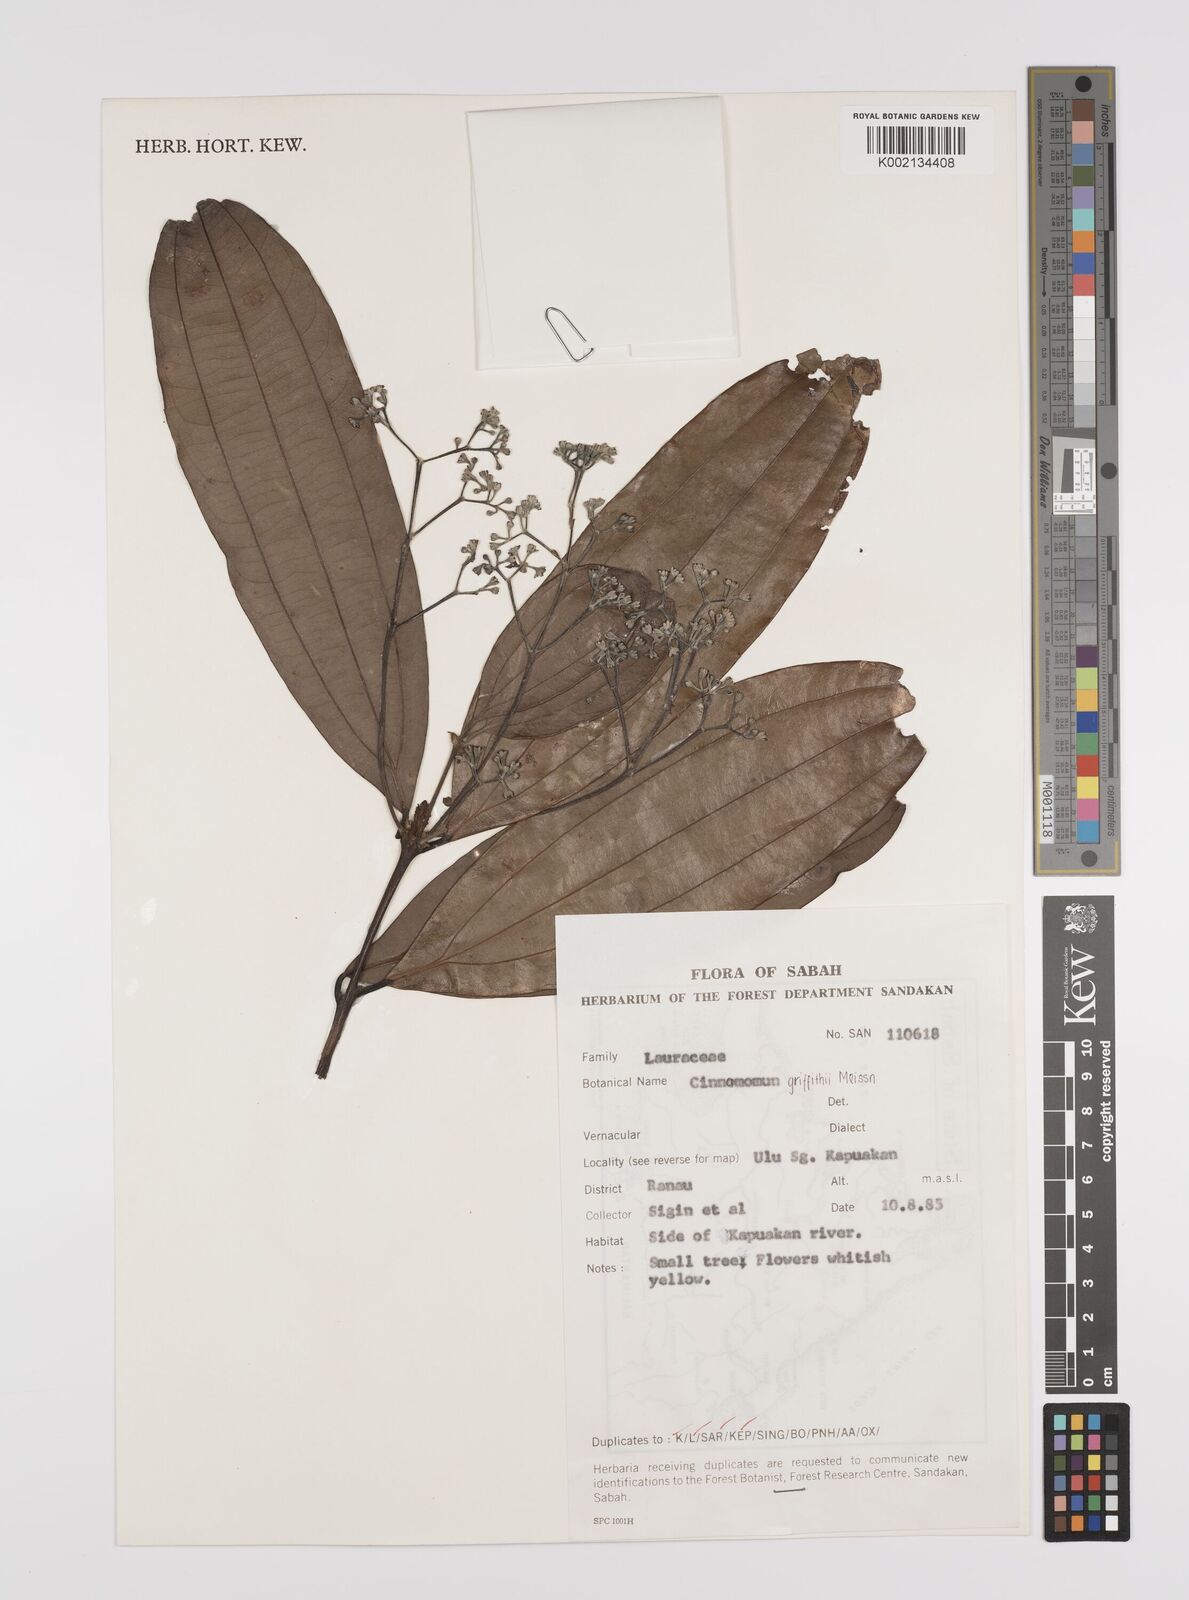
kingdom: Plantae
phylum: Tracheophyta
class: Magnoliopsida
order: Laurales
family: Lauraceae
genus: Cinnamomum
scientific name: Cinnamomum iners
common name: Wild cinnamon
